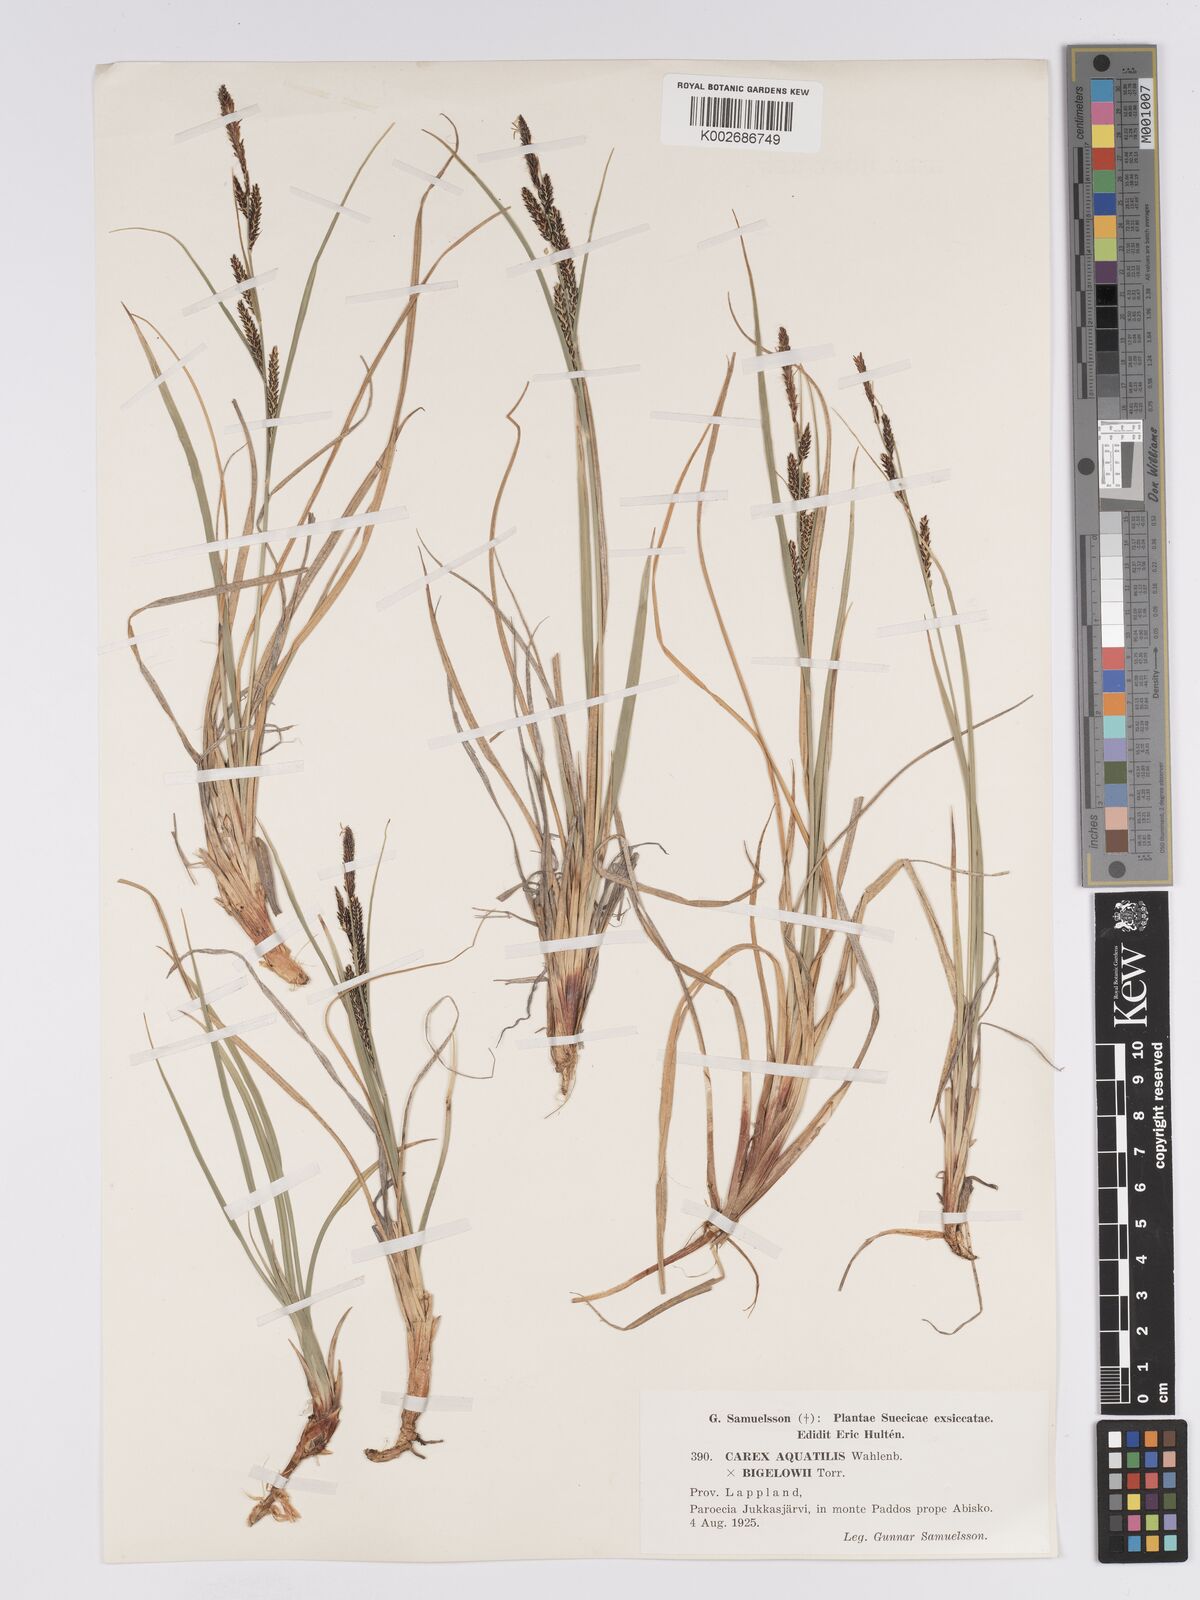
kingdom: Plantae
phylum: Tracheophyta
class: Liliopsida
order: Poales
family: Cyperaceae
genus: Carex
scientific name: Carex aquatilis
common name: Water sedge
